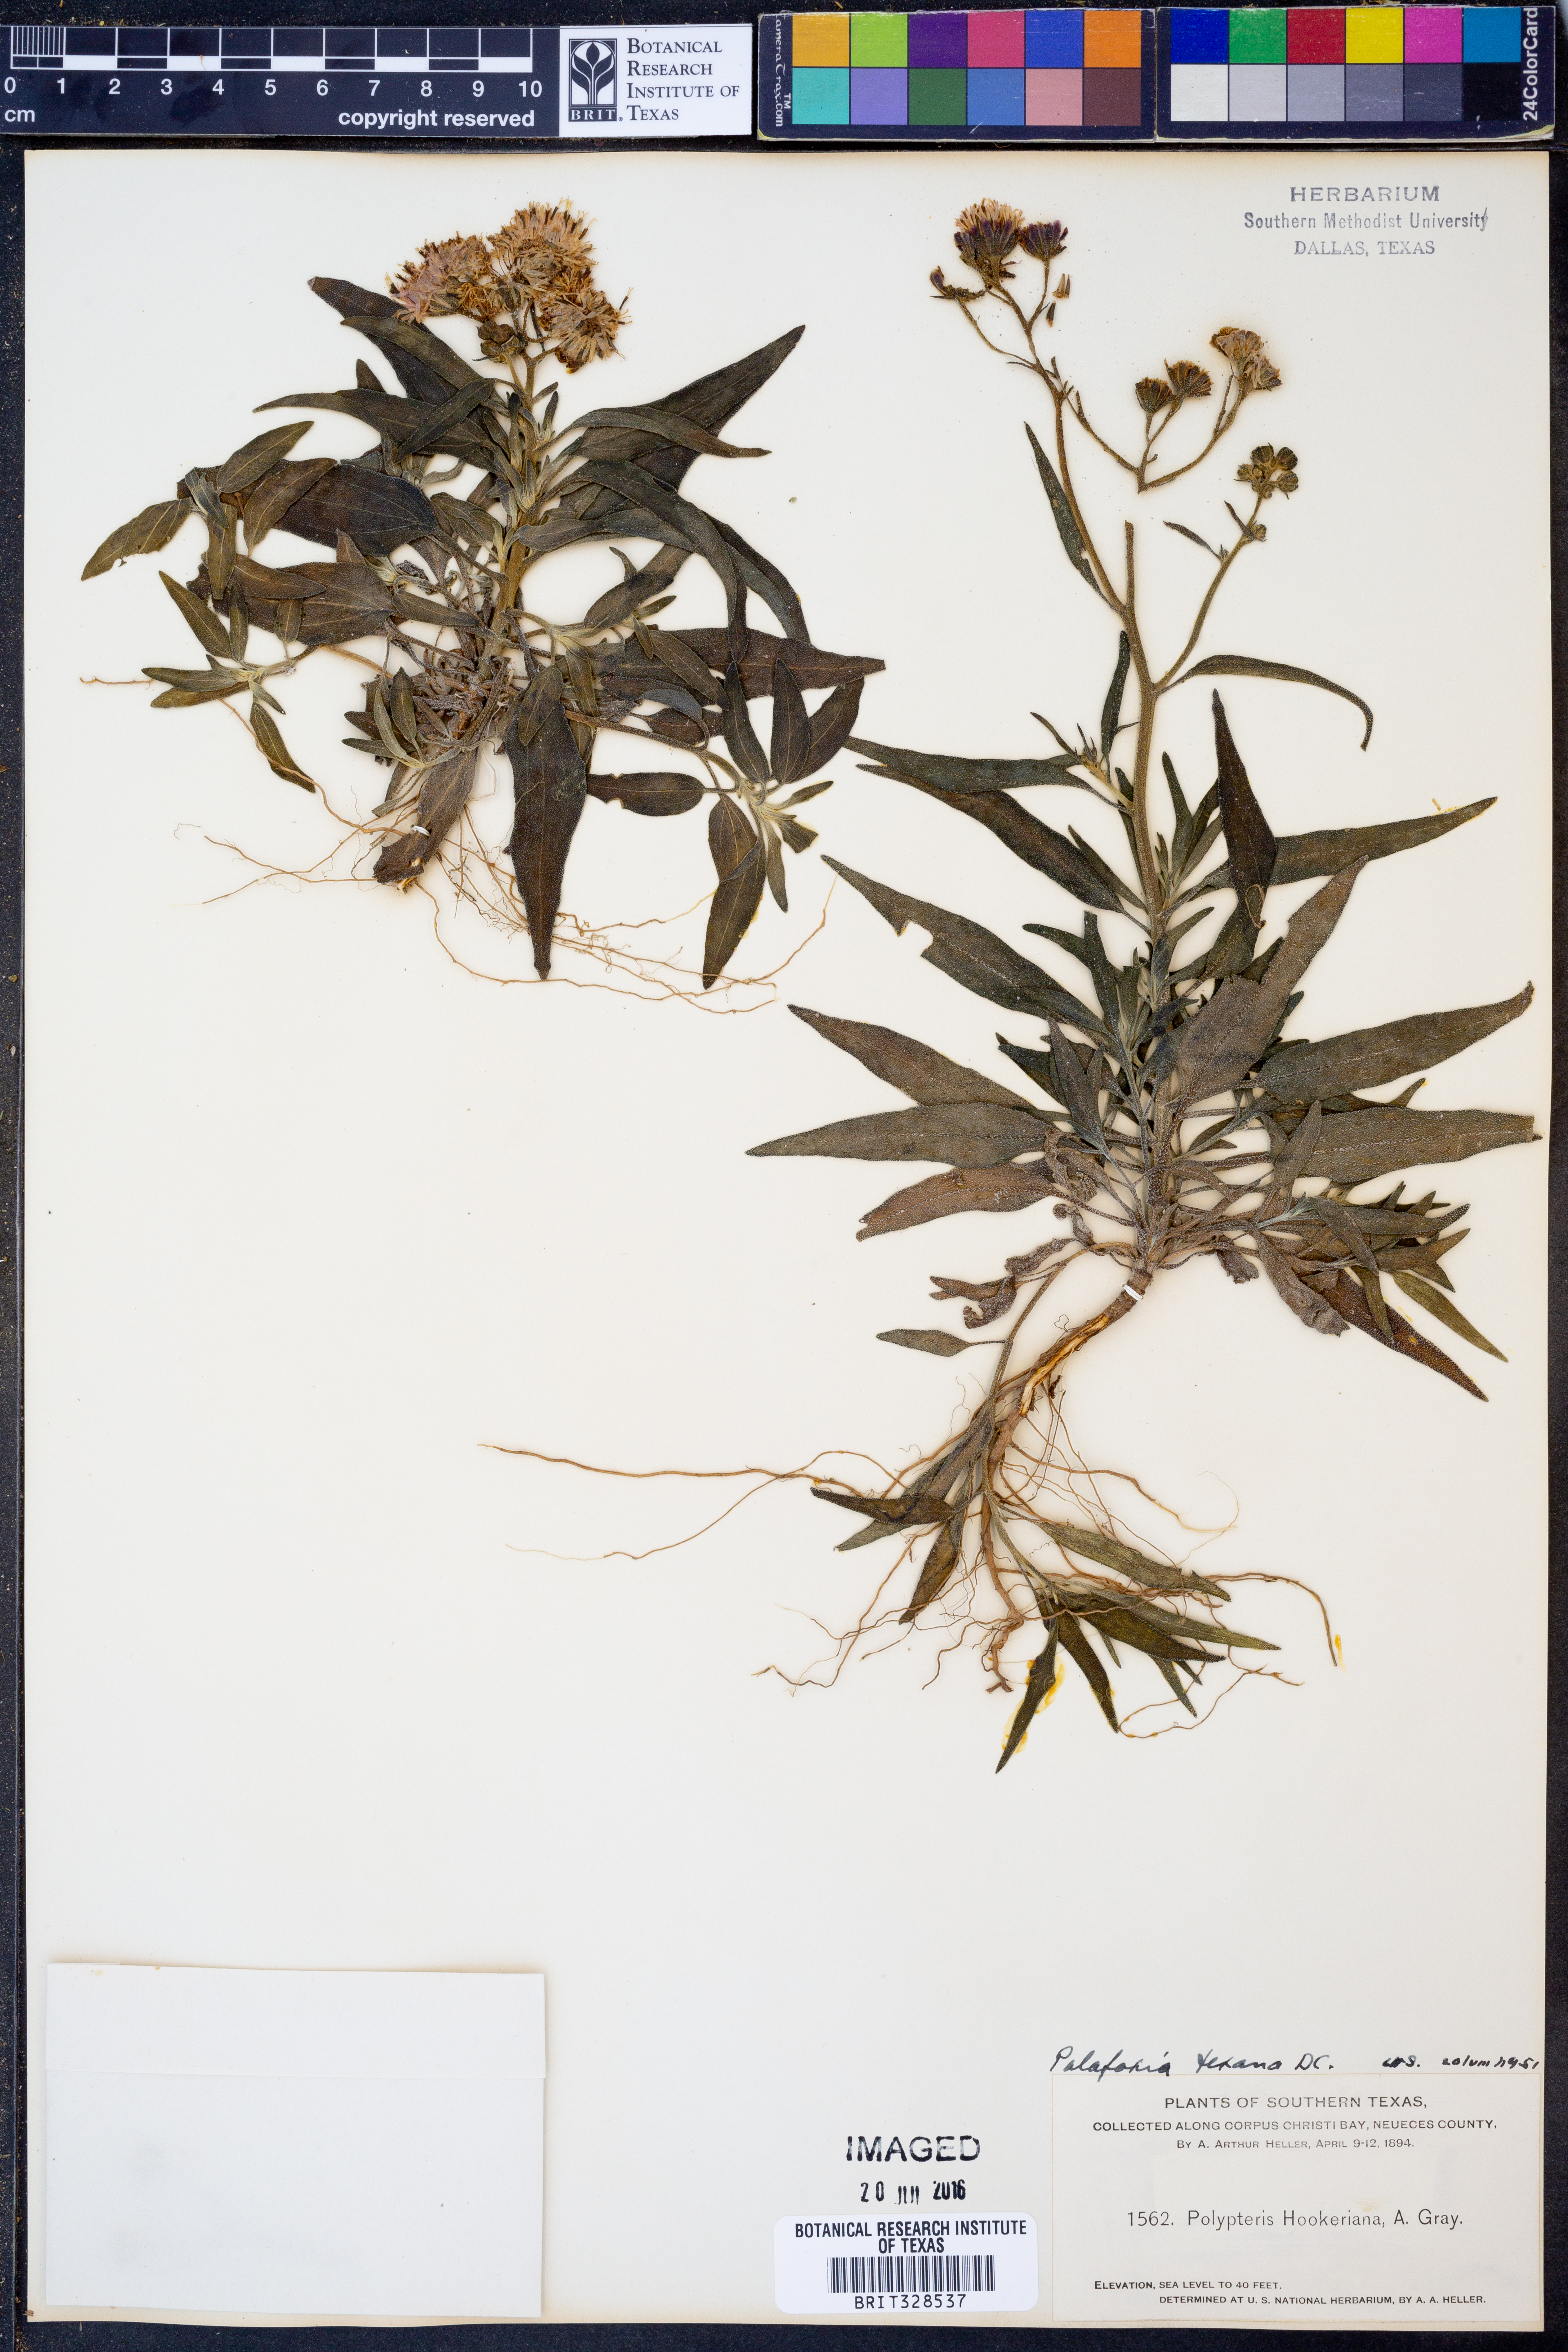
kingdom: Plantae
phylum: Tracheophyta
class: Magnoliopsida
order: Asterales
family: Asteraceae
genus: Palafoxia
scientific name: Palafoxia texana
